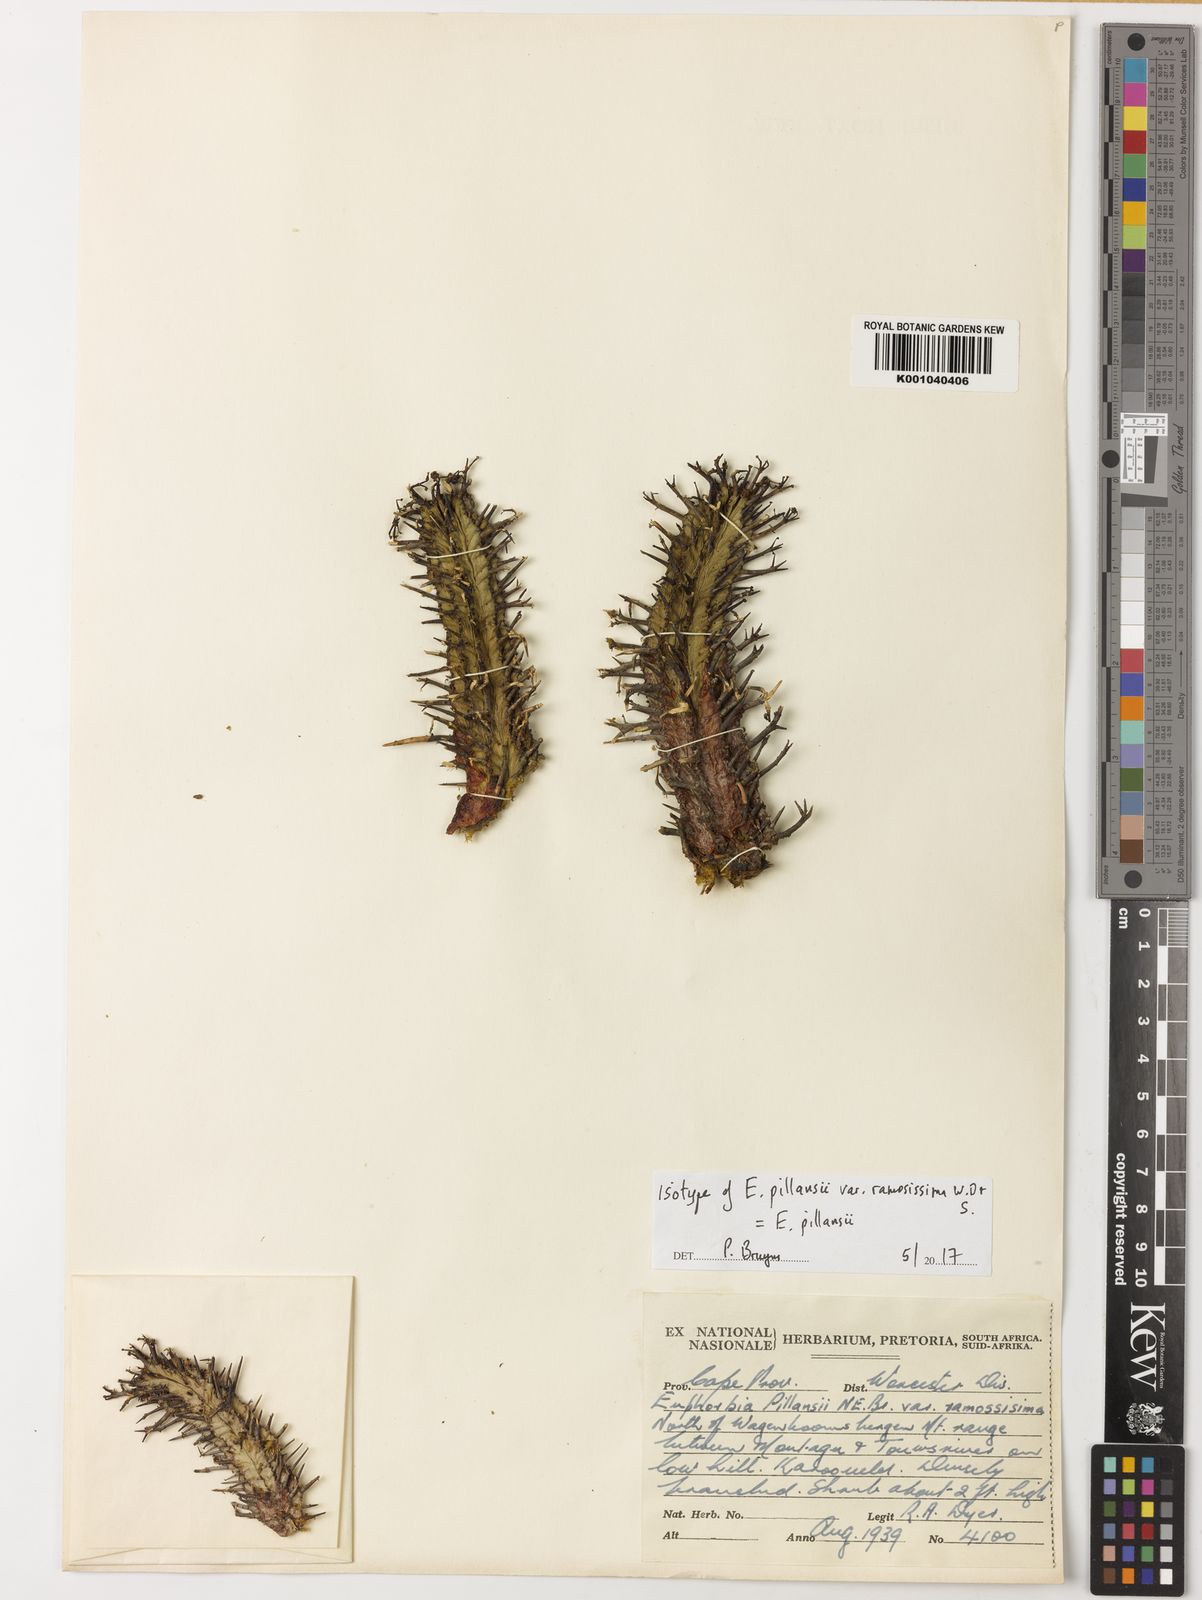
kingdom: Plantae
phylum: Tracheophyta
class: Magnoliopsida
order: Malpighiales
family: Euphorbiaceae
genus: Euphorbia
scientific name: Euphorbia pillansii
